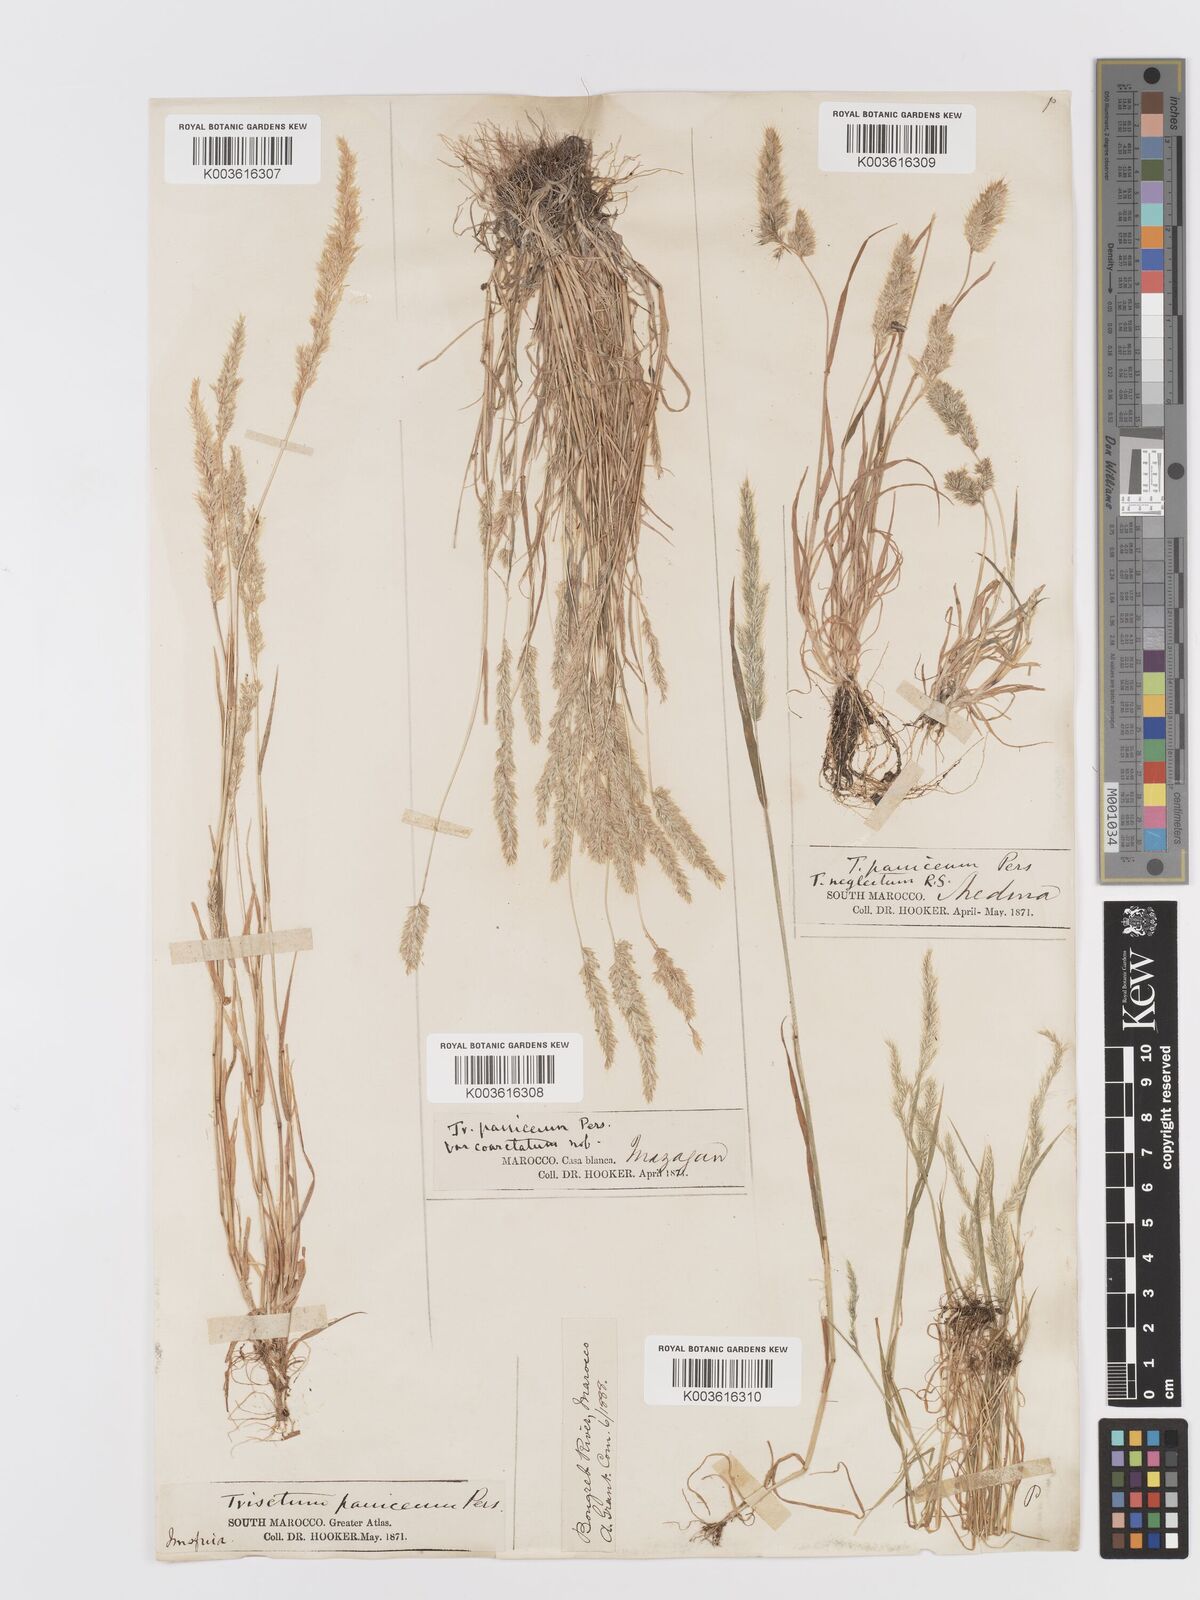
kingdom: Plantae
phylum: Tracheophyta
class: Liliopsida
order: Poales
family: Poaceae
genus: Trisetaria
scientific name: Trisetaria panicea
